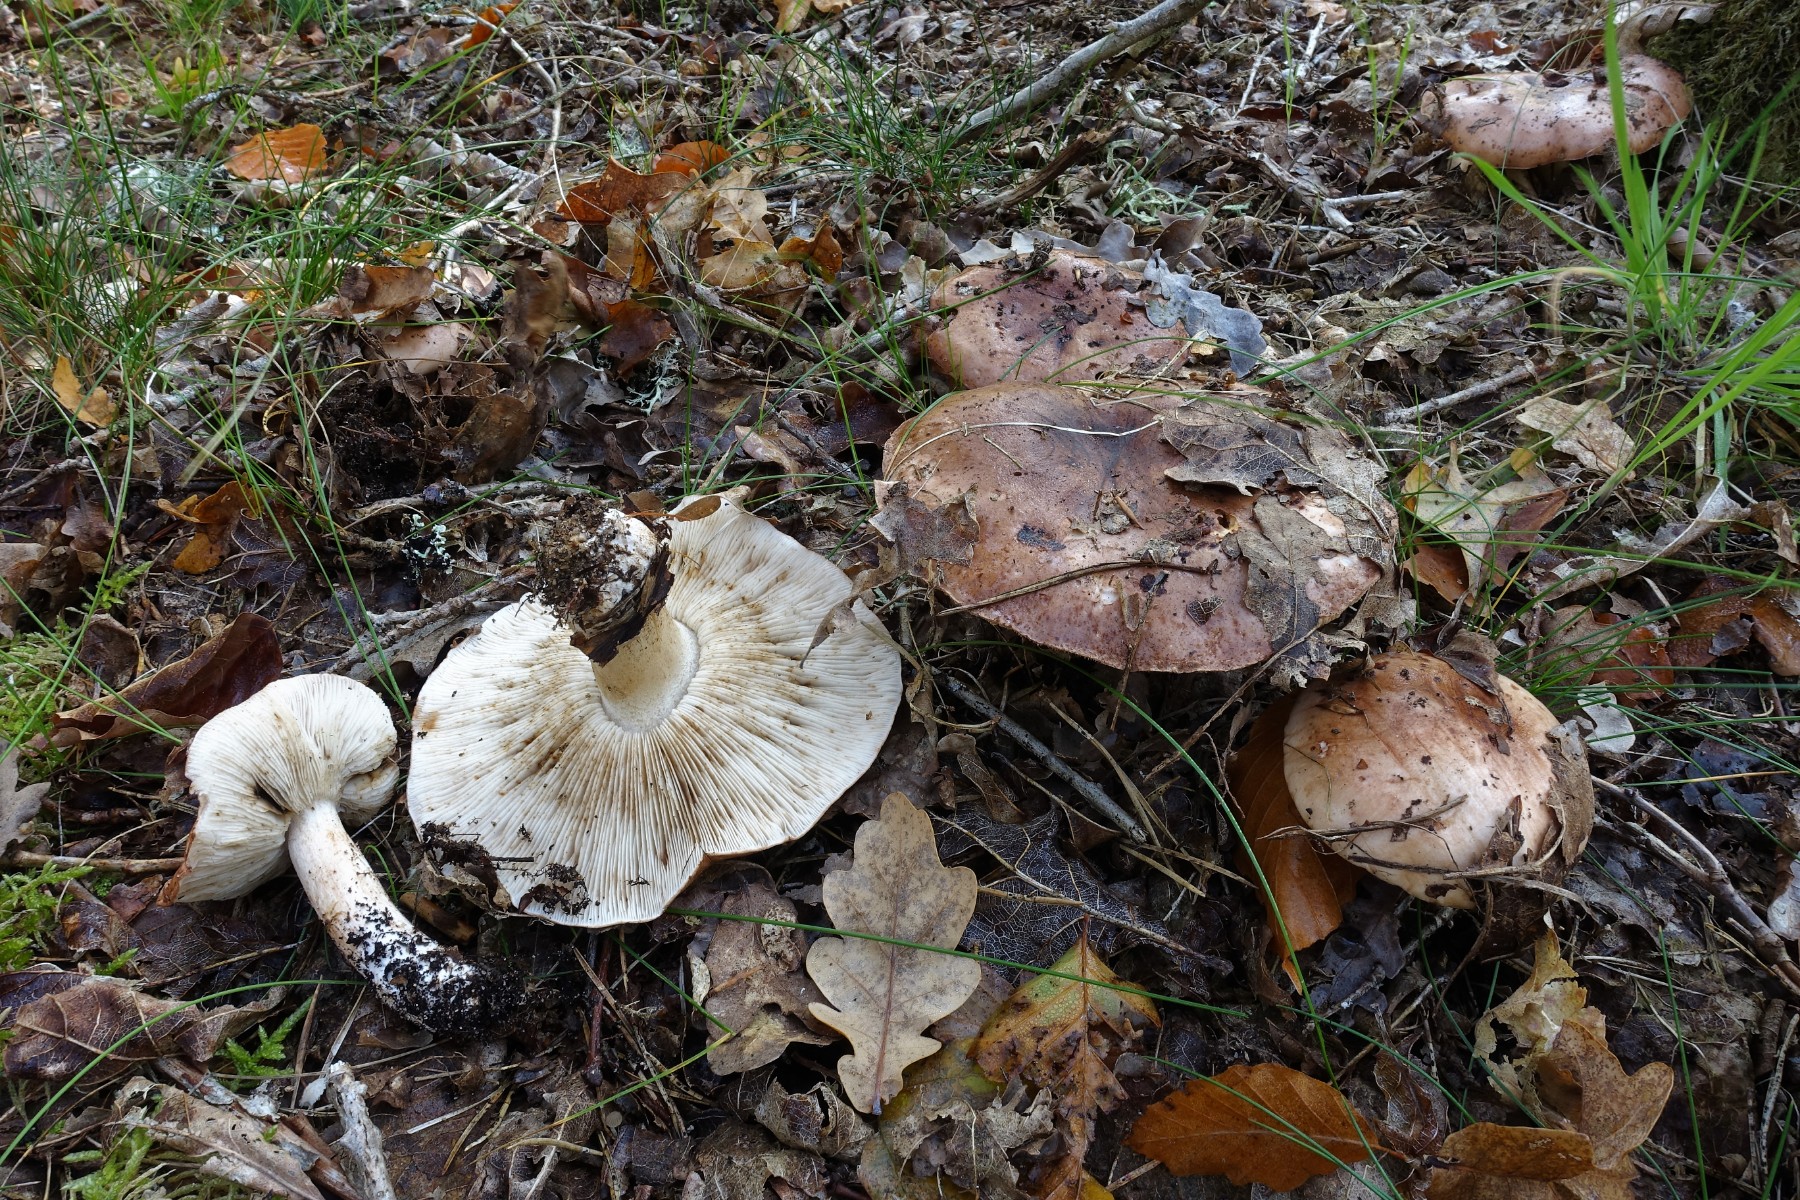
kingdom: Fungi
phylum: Basidiomycota
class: Agaricomycetes
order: Agaricales
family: Tricholomataceae
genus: Tricholoma
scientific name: Tricholoma pessundatum
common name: dråbeplettet ridderhat
